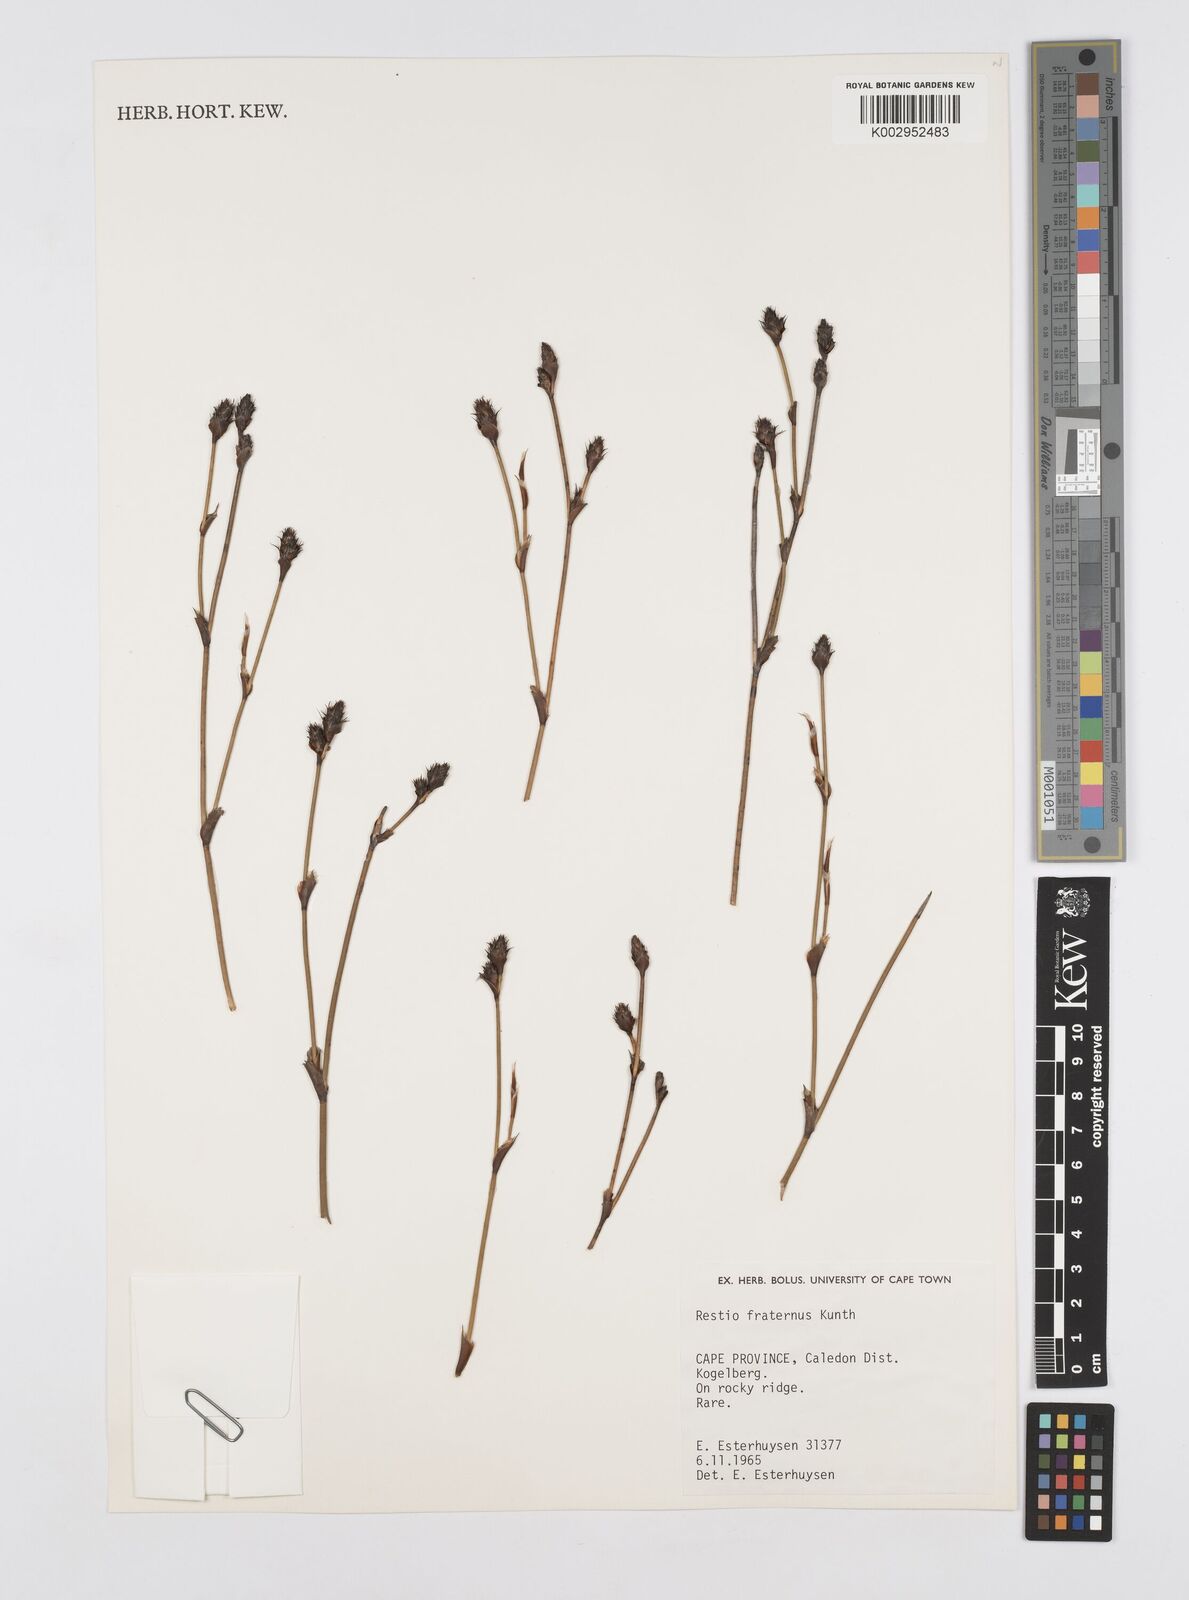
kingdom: Plantae
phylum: Tracheophyta
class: Liliopsida
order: Poales
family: Restionaceae
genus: Restio
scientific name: Restio fraternus
